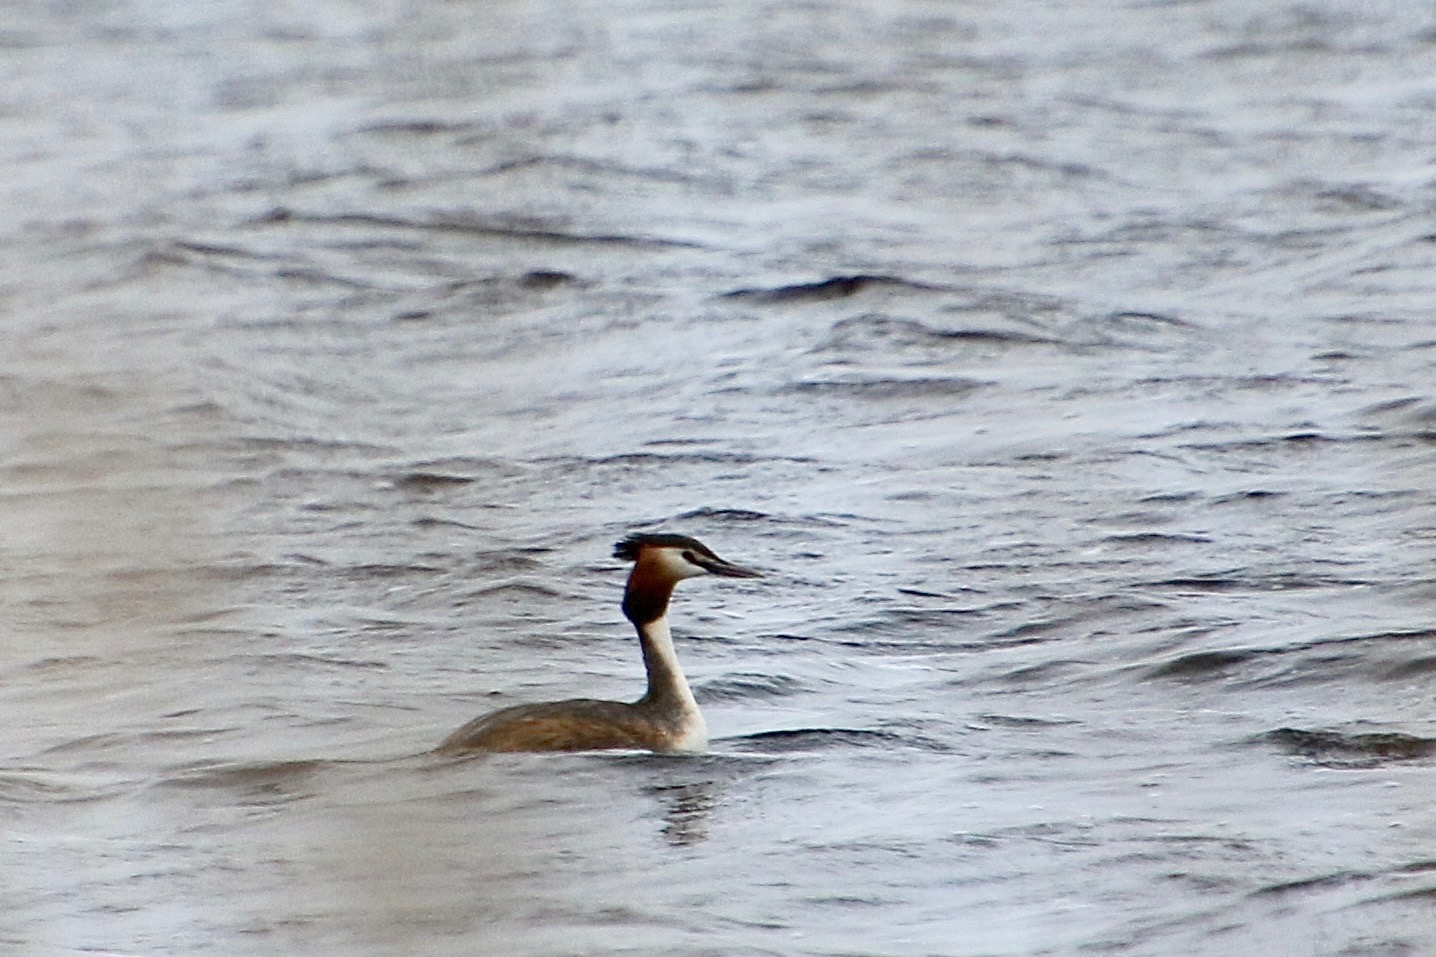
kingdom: Animalia
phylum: Chordata
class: Aves
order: Podicipediformes
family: Podicipedidae
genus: Podiceps
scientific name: Podiceps cristatus
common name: Toppet lappedykker
